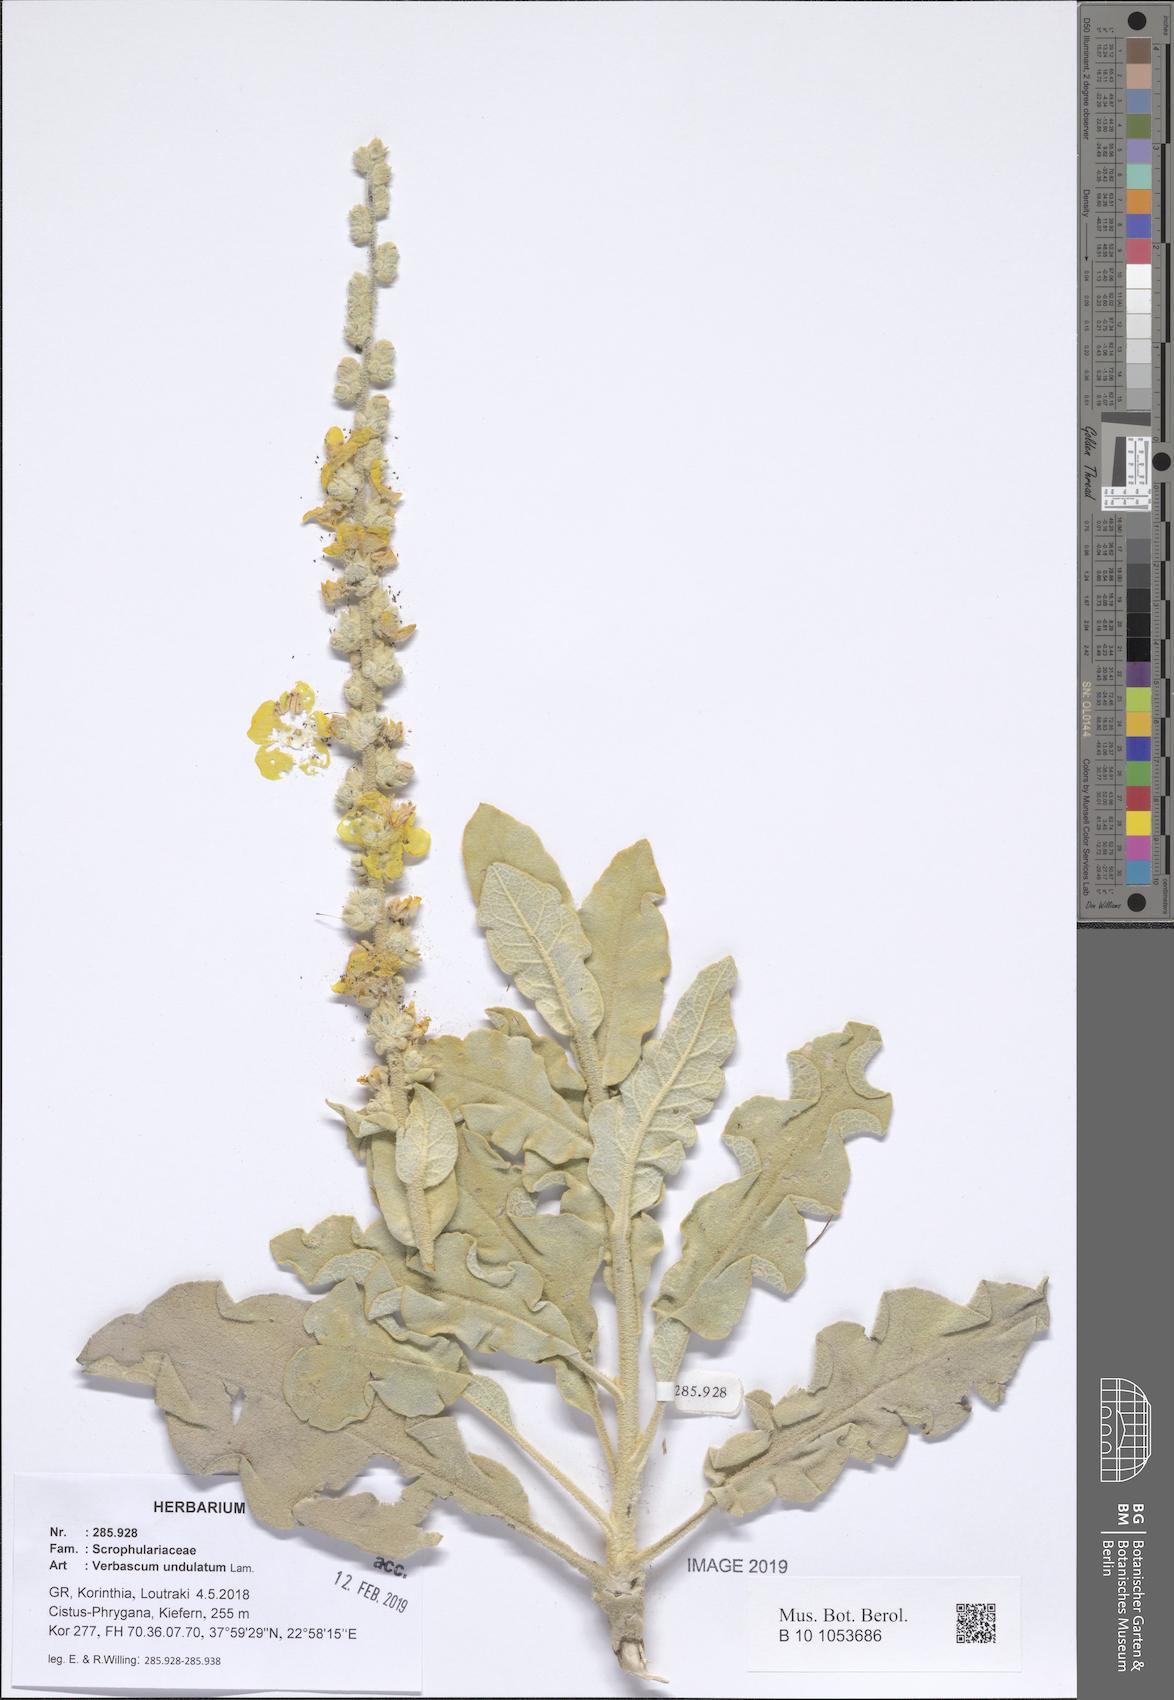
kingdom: Plantae
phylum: Tracheophyta
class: Magnoliopsida
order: Lamiales
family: Scrophulariaceae
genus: Verbascum
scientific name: Verbascum undulatum
